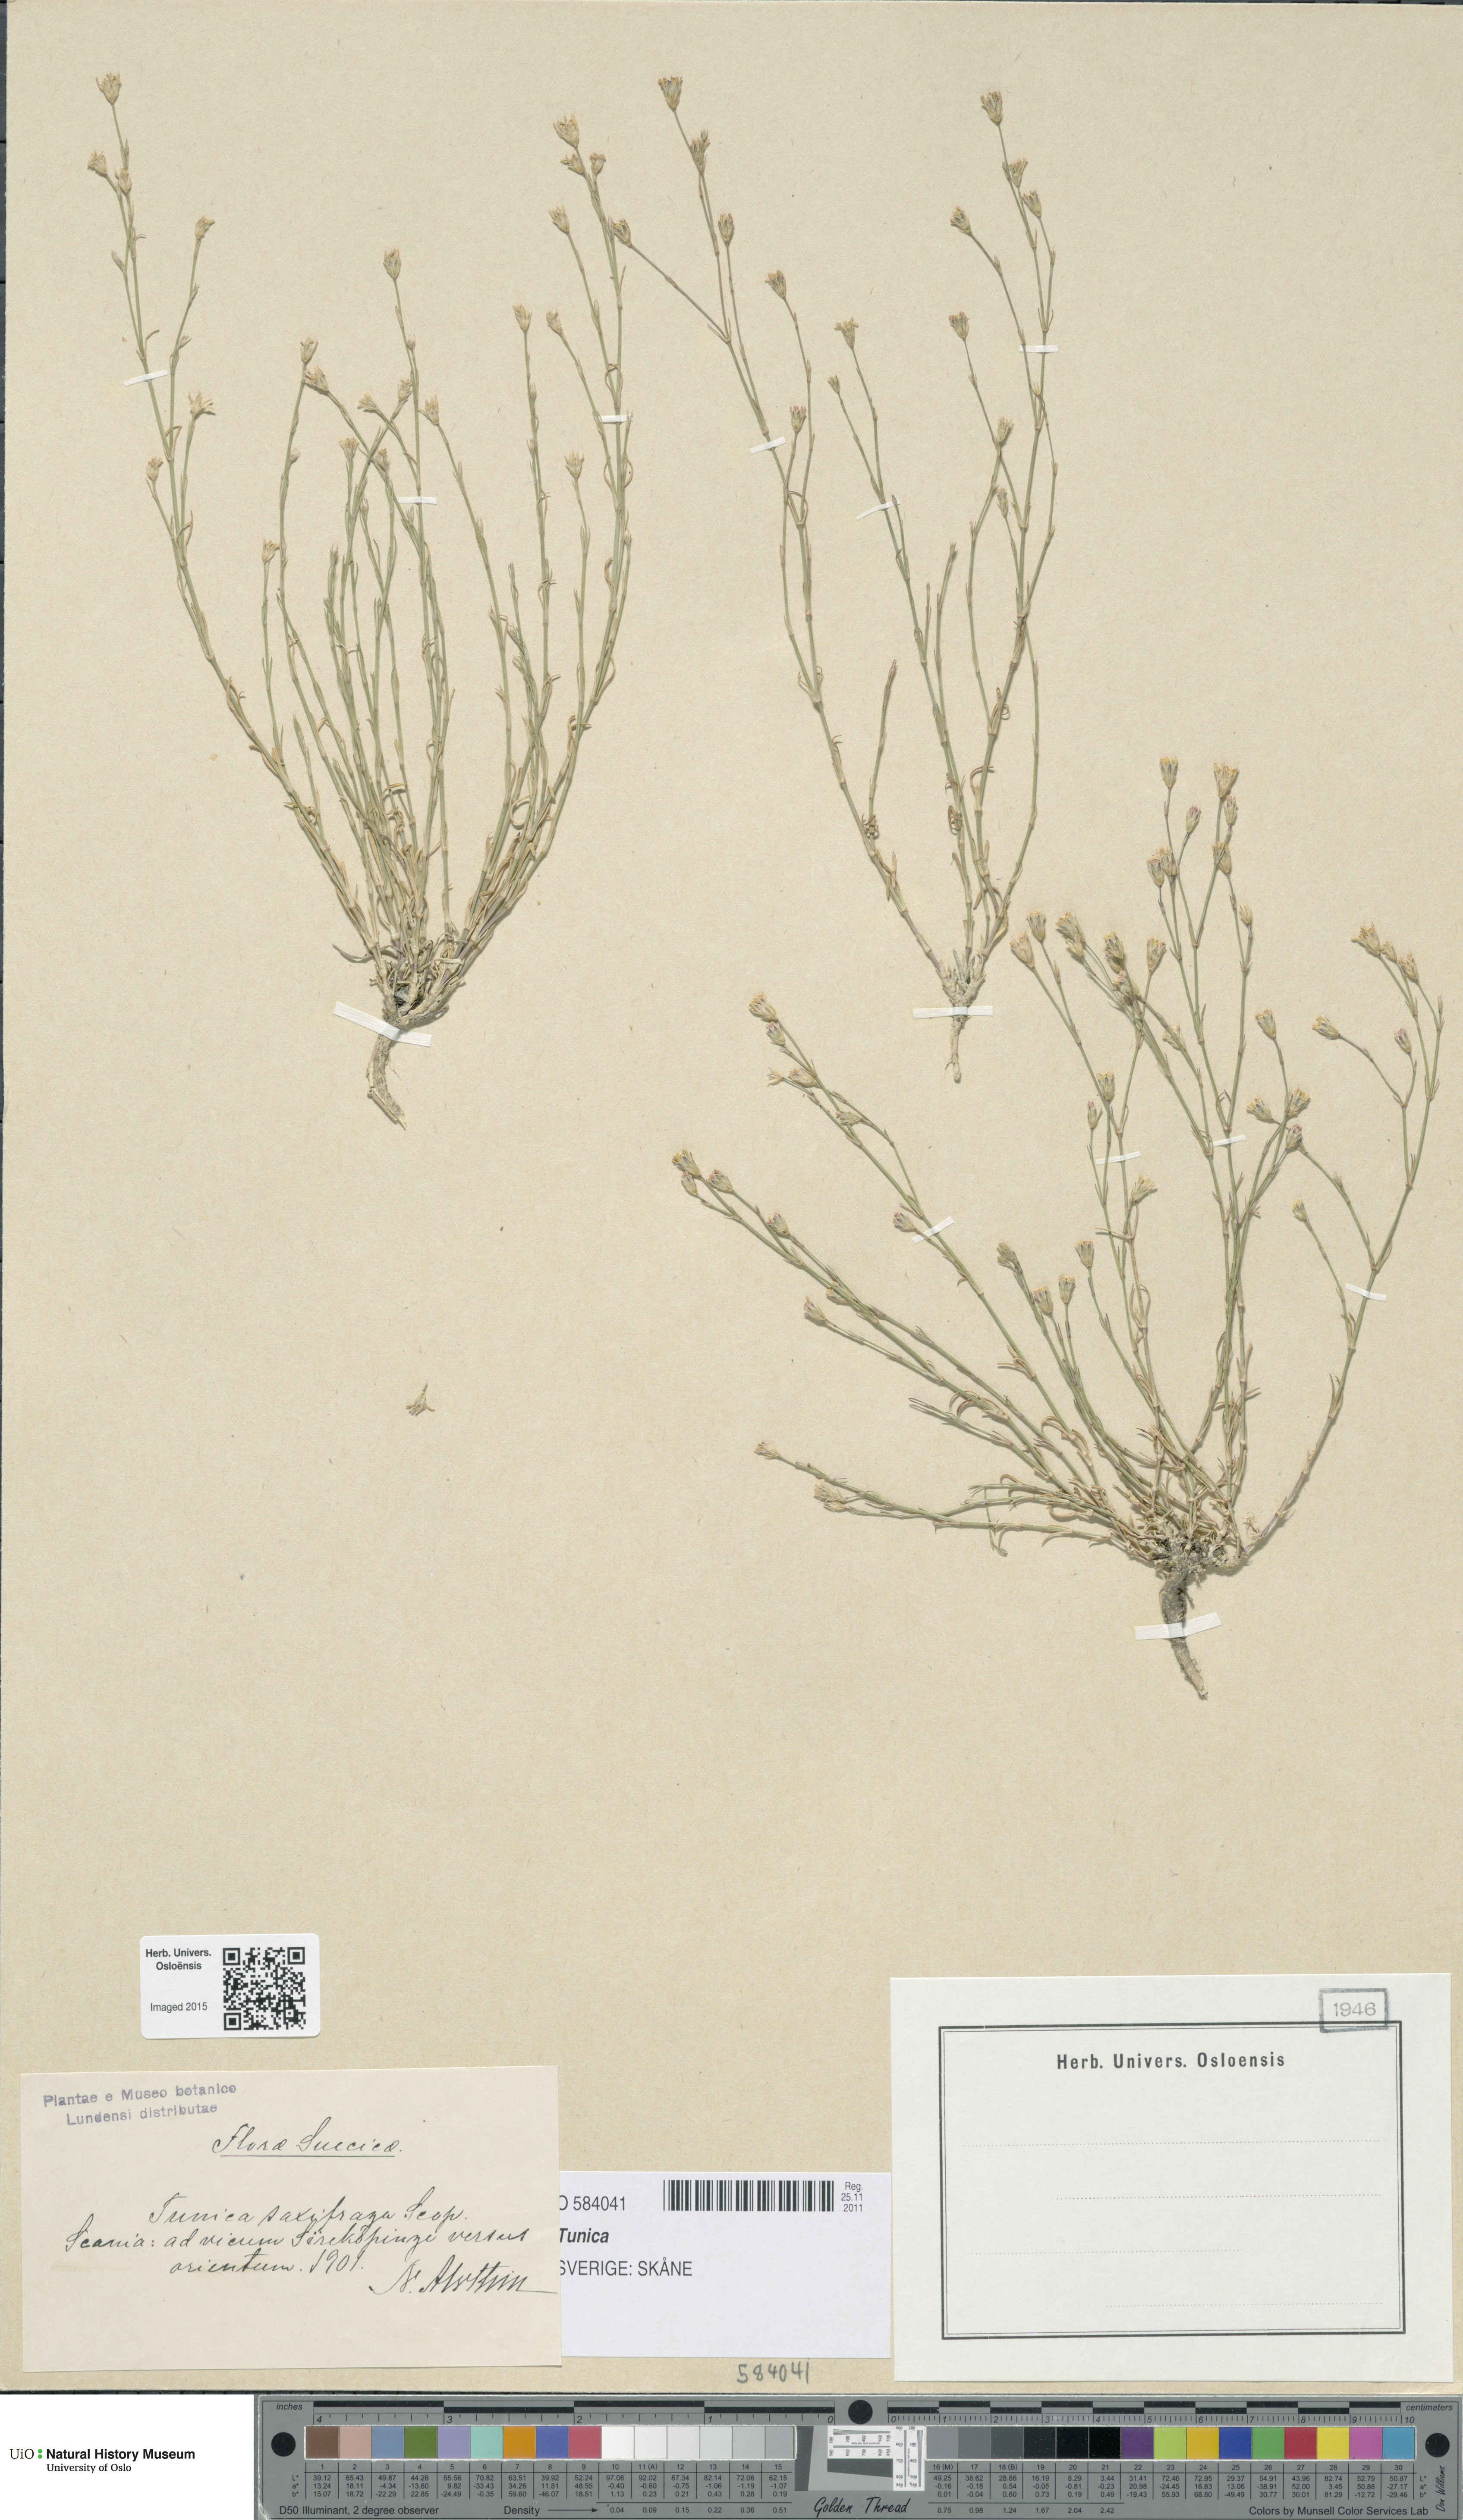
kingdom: Plantae
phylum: Tracheophyta
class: Magnoliopsida
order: Caryophyllales
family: Caryophyllaceae
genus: Tunica
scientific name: Tunica
